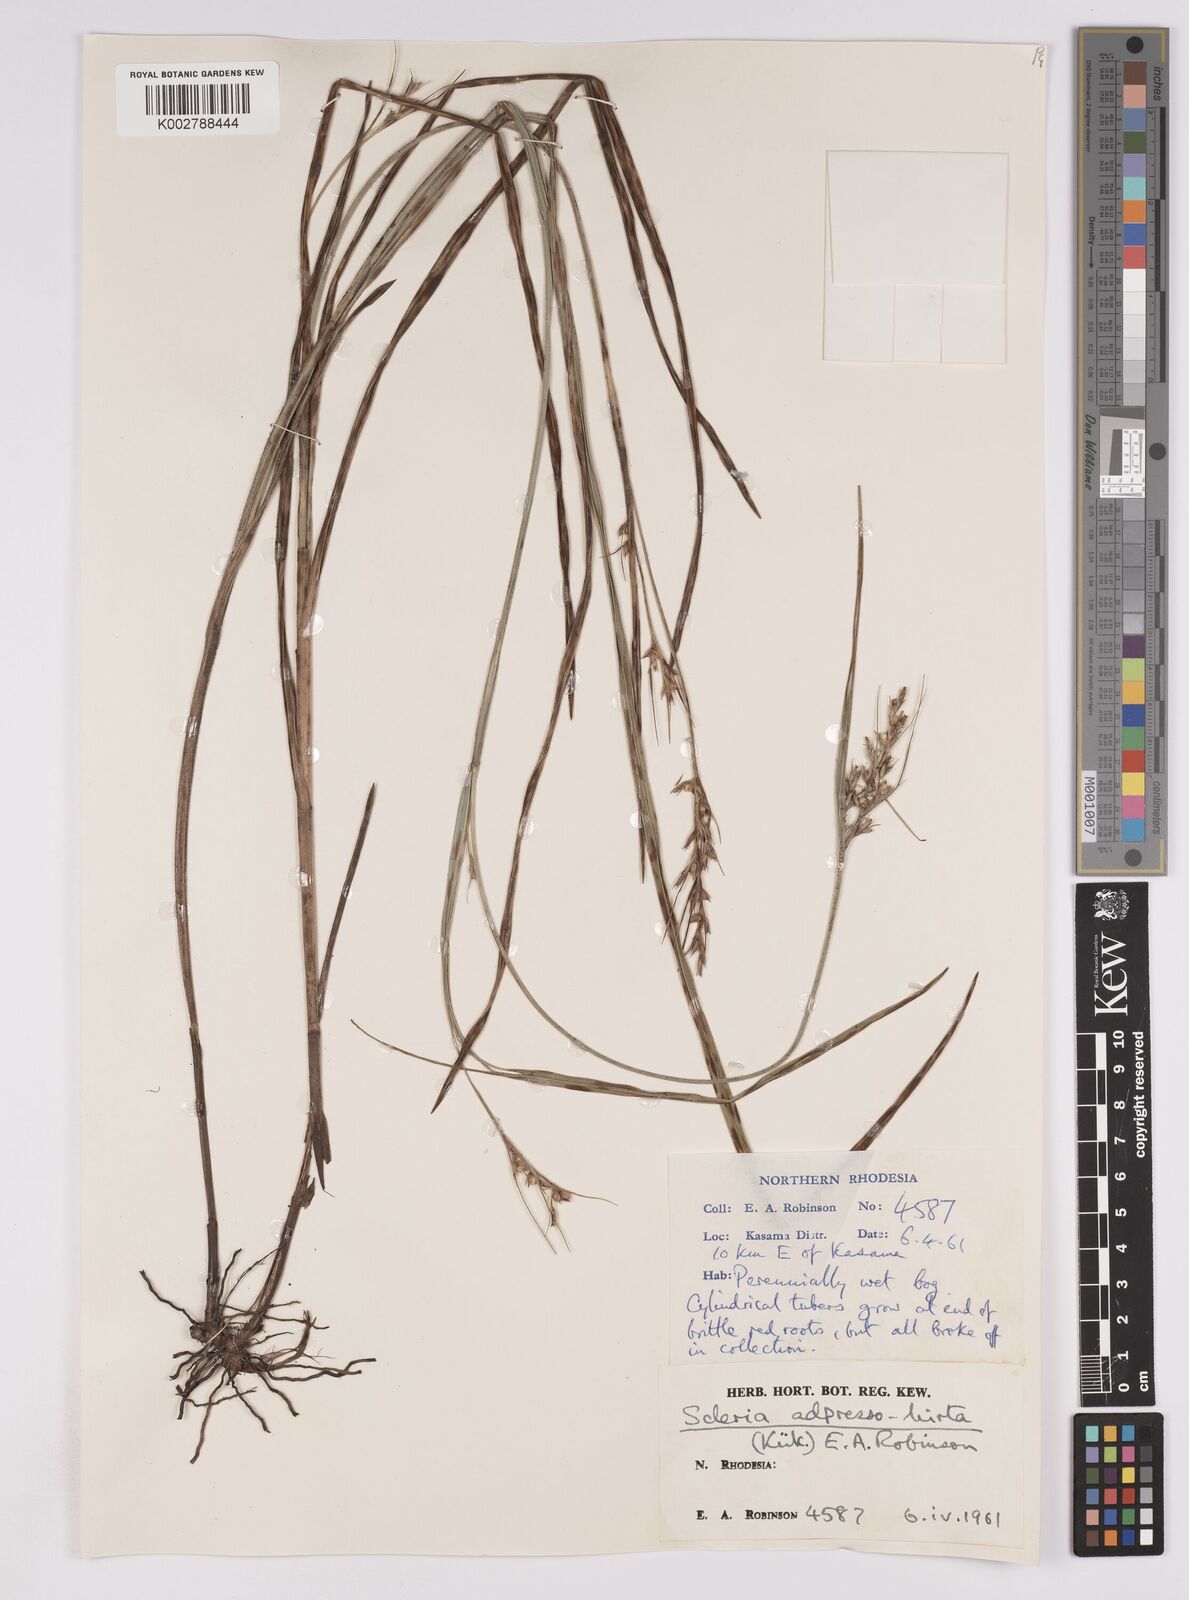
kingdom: Plantae
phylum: Tracheophyta
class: Liliopsida
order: Poales
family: Cyperaceae
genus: Scleria
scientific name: Scleria adpressohirta
